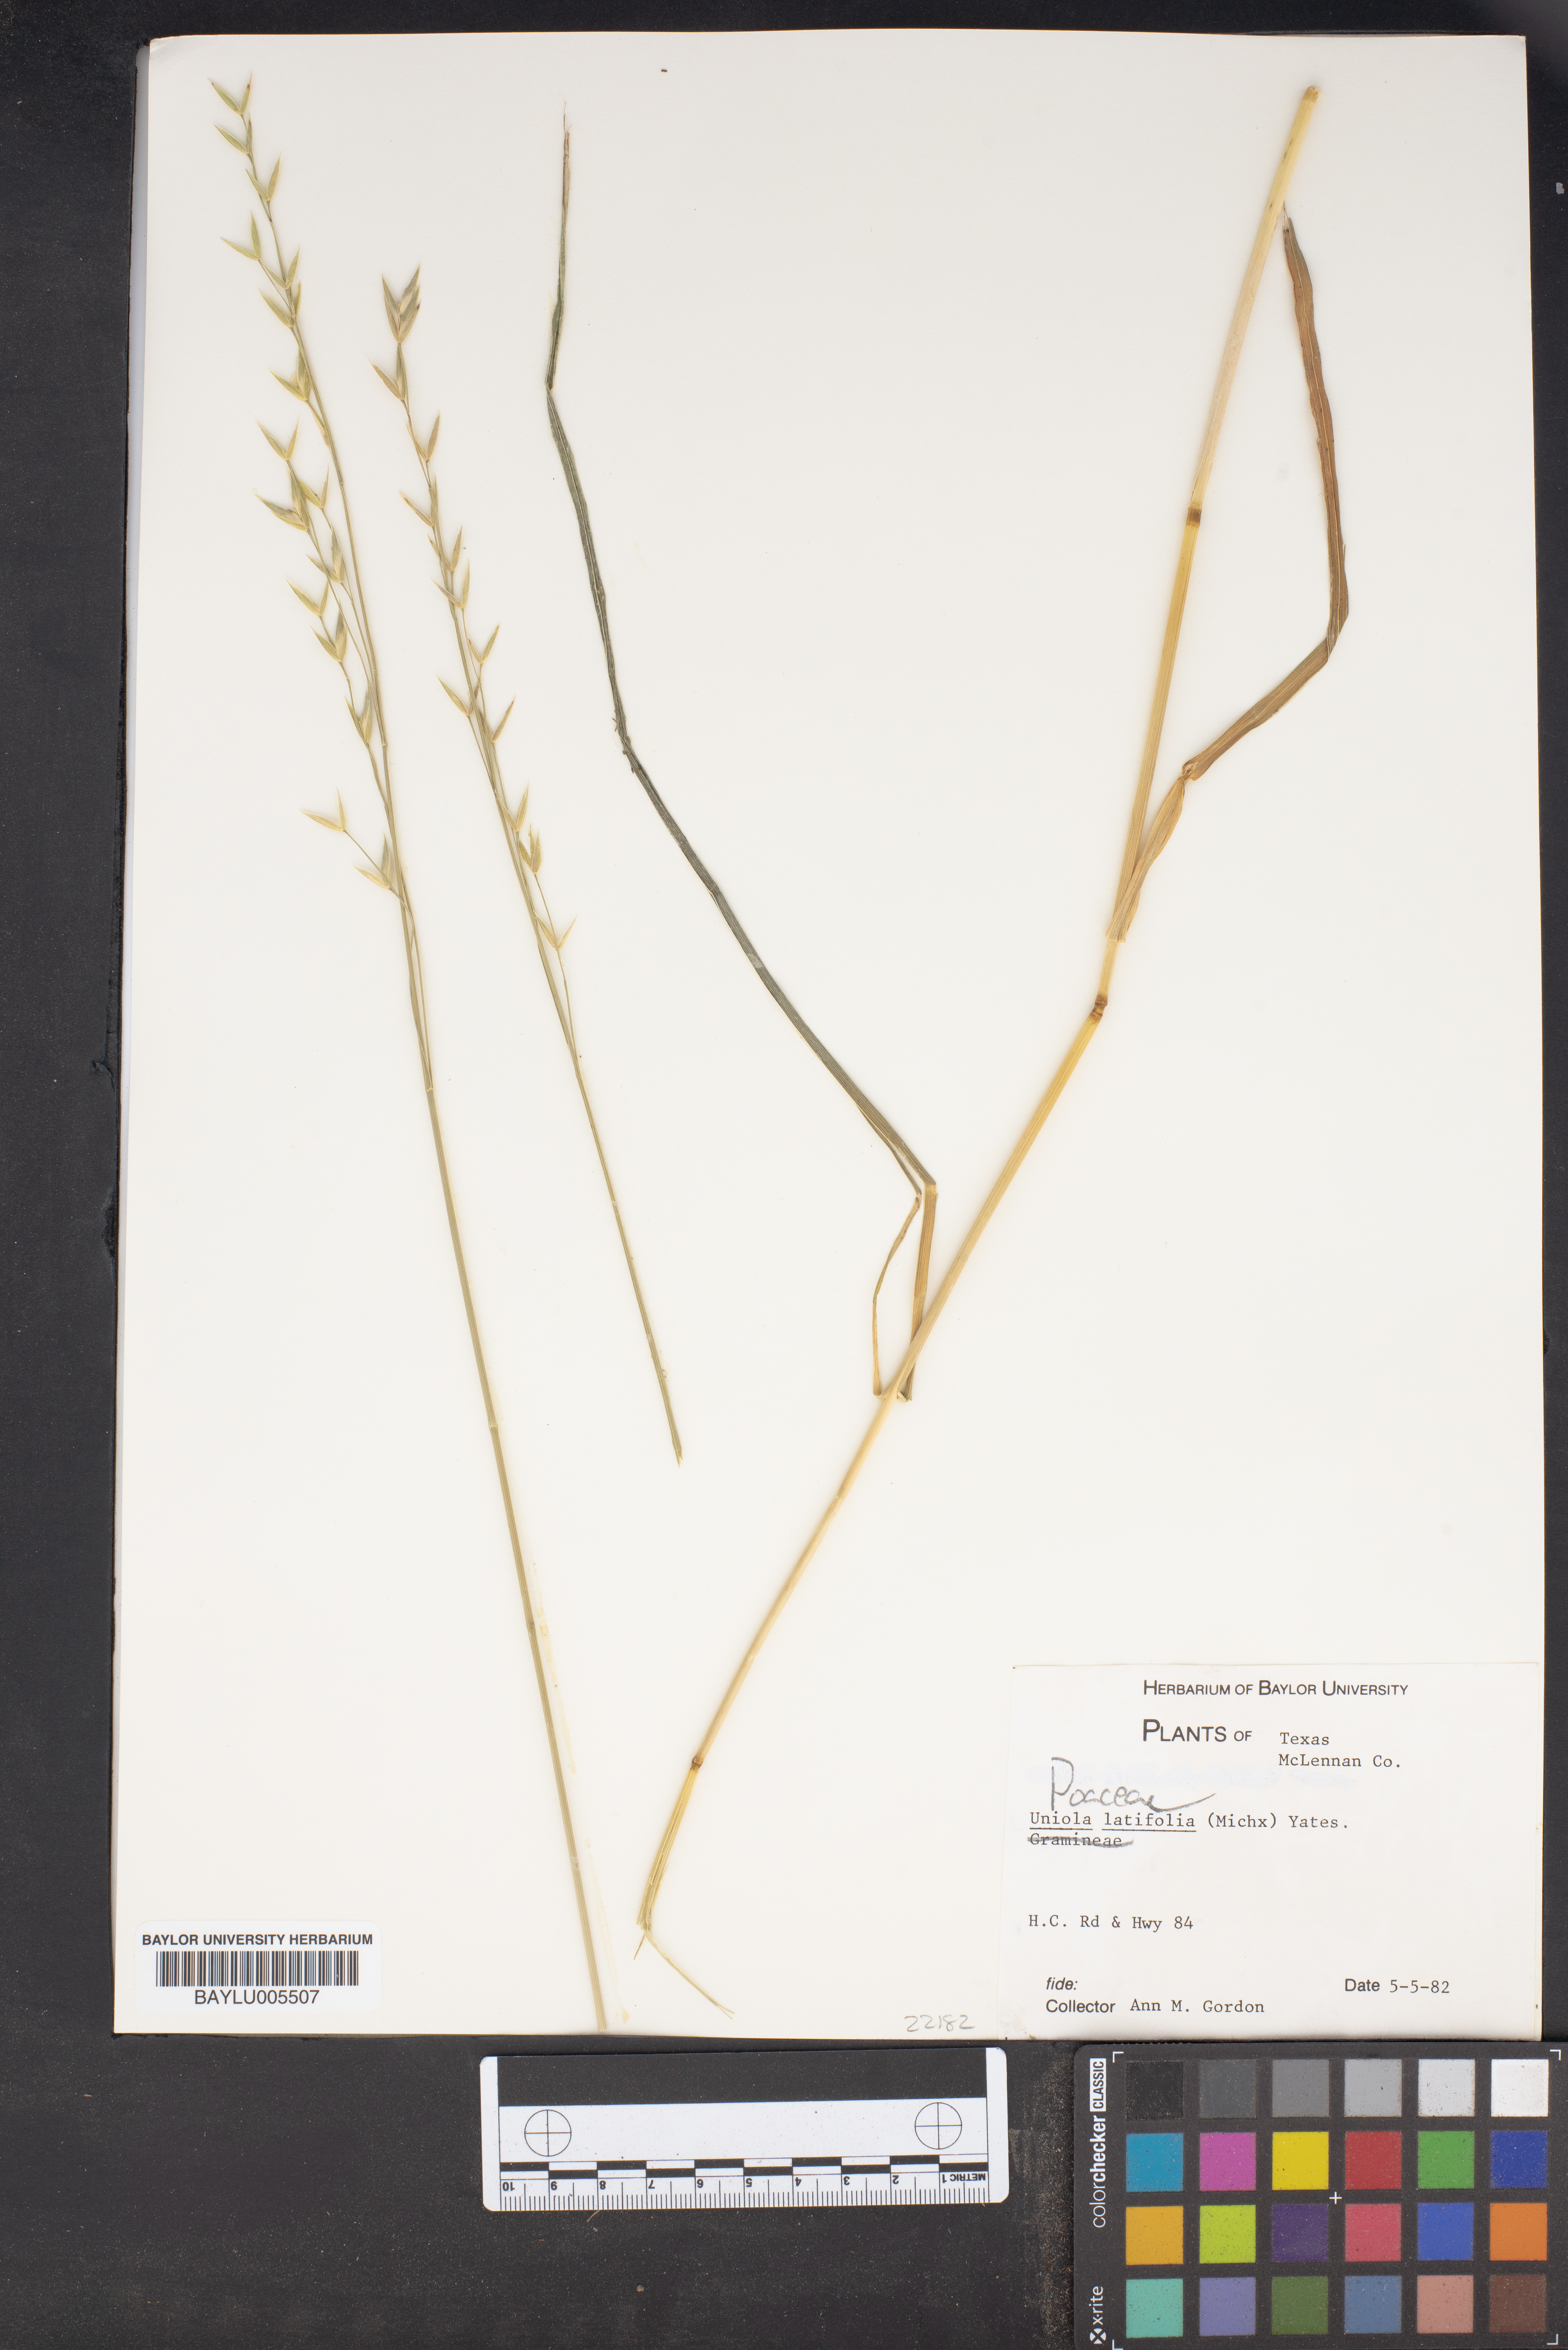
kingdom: Plantae
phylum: Tracheophyta
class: Liliopsida
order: Poales
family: Poaceae
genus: Chasmanthium
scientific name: Chasmanthium latifolium
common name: Broad-leaved chasmanthium
